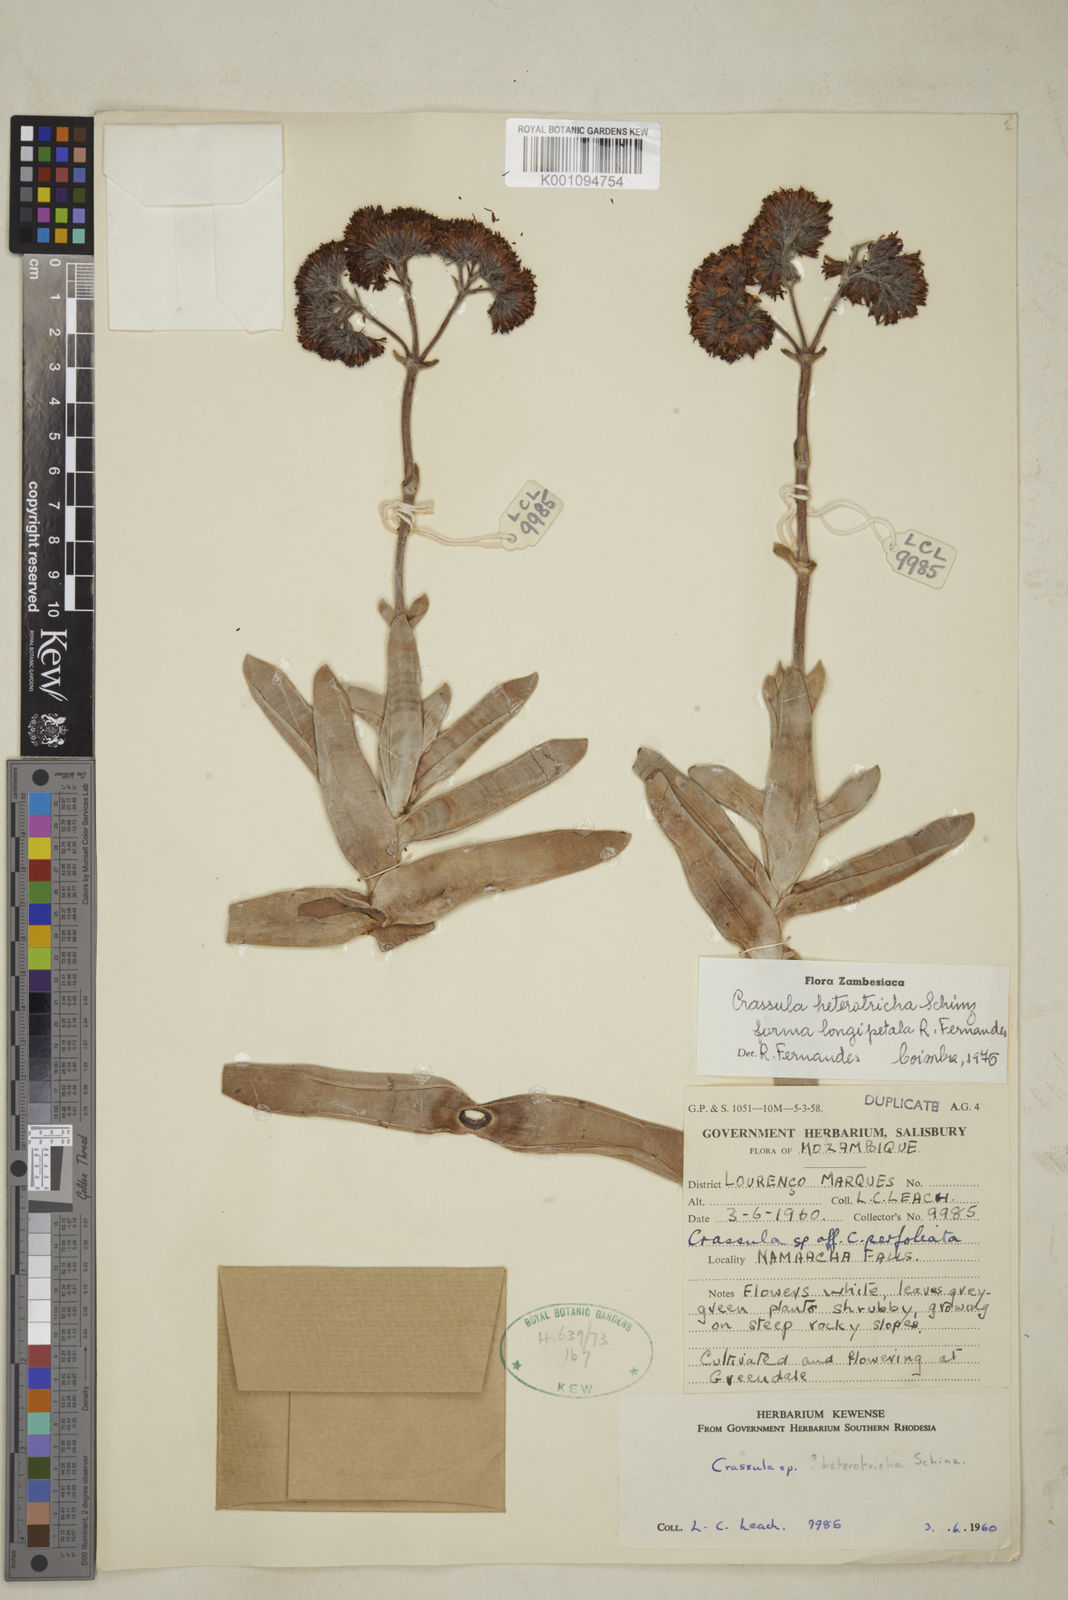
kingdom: Plantae
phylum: Tracheophyta
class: Magnoliopsida
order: Saxifragales
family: Crassulaceae
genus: Crassula
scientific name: Crassula perfoliata
